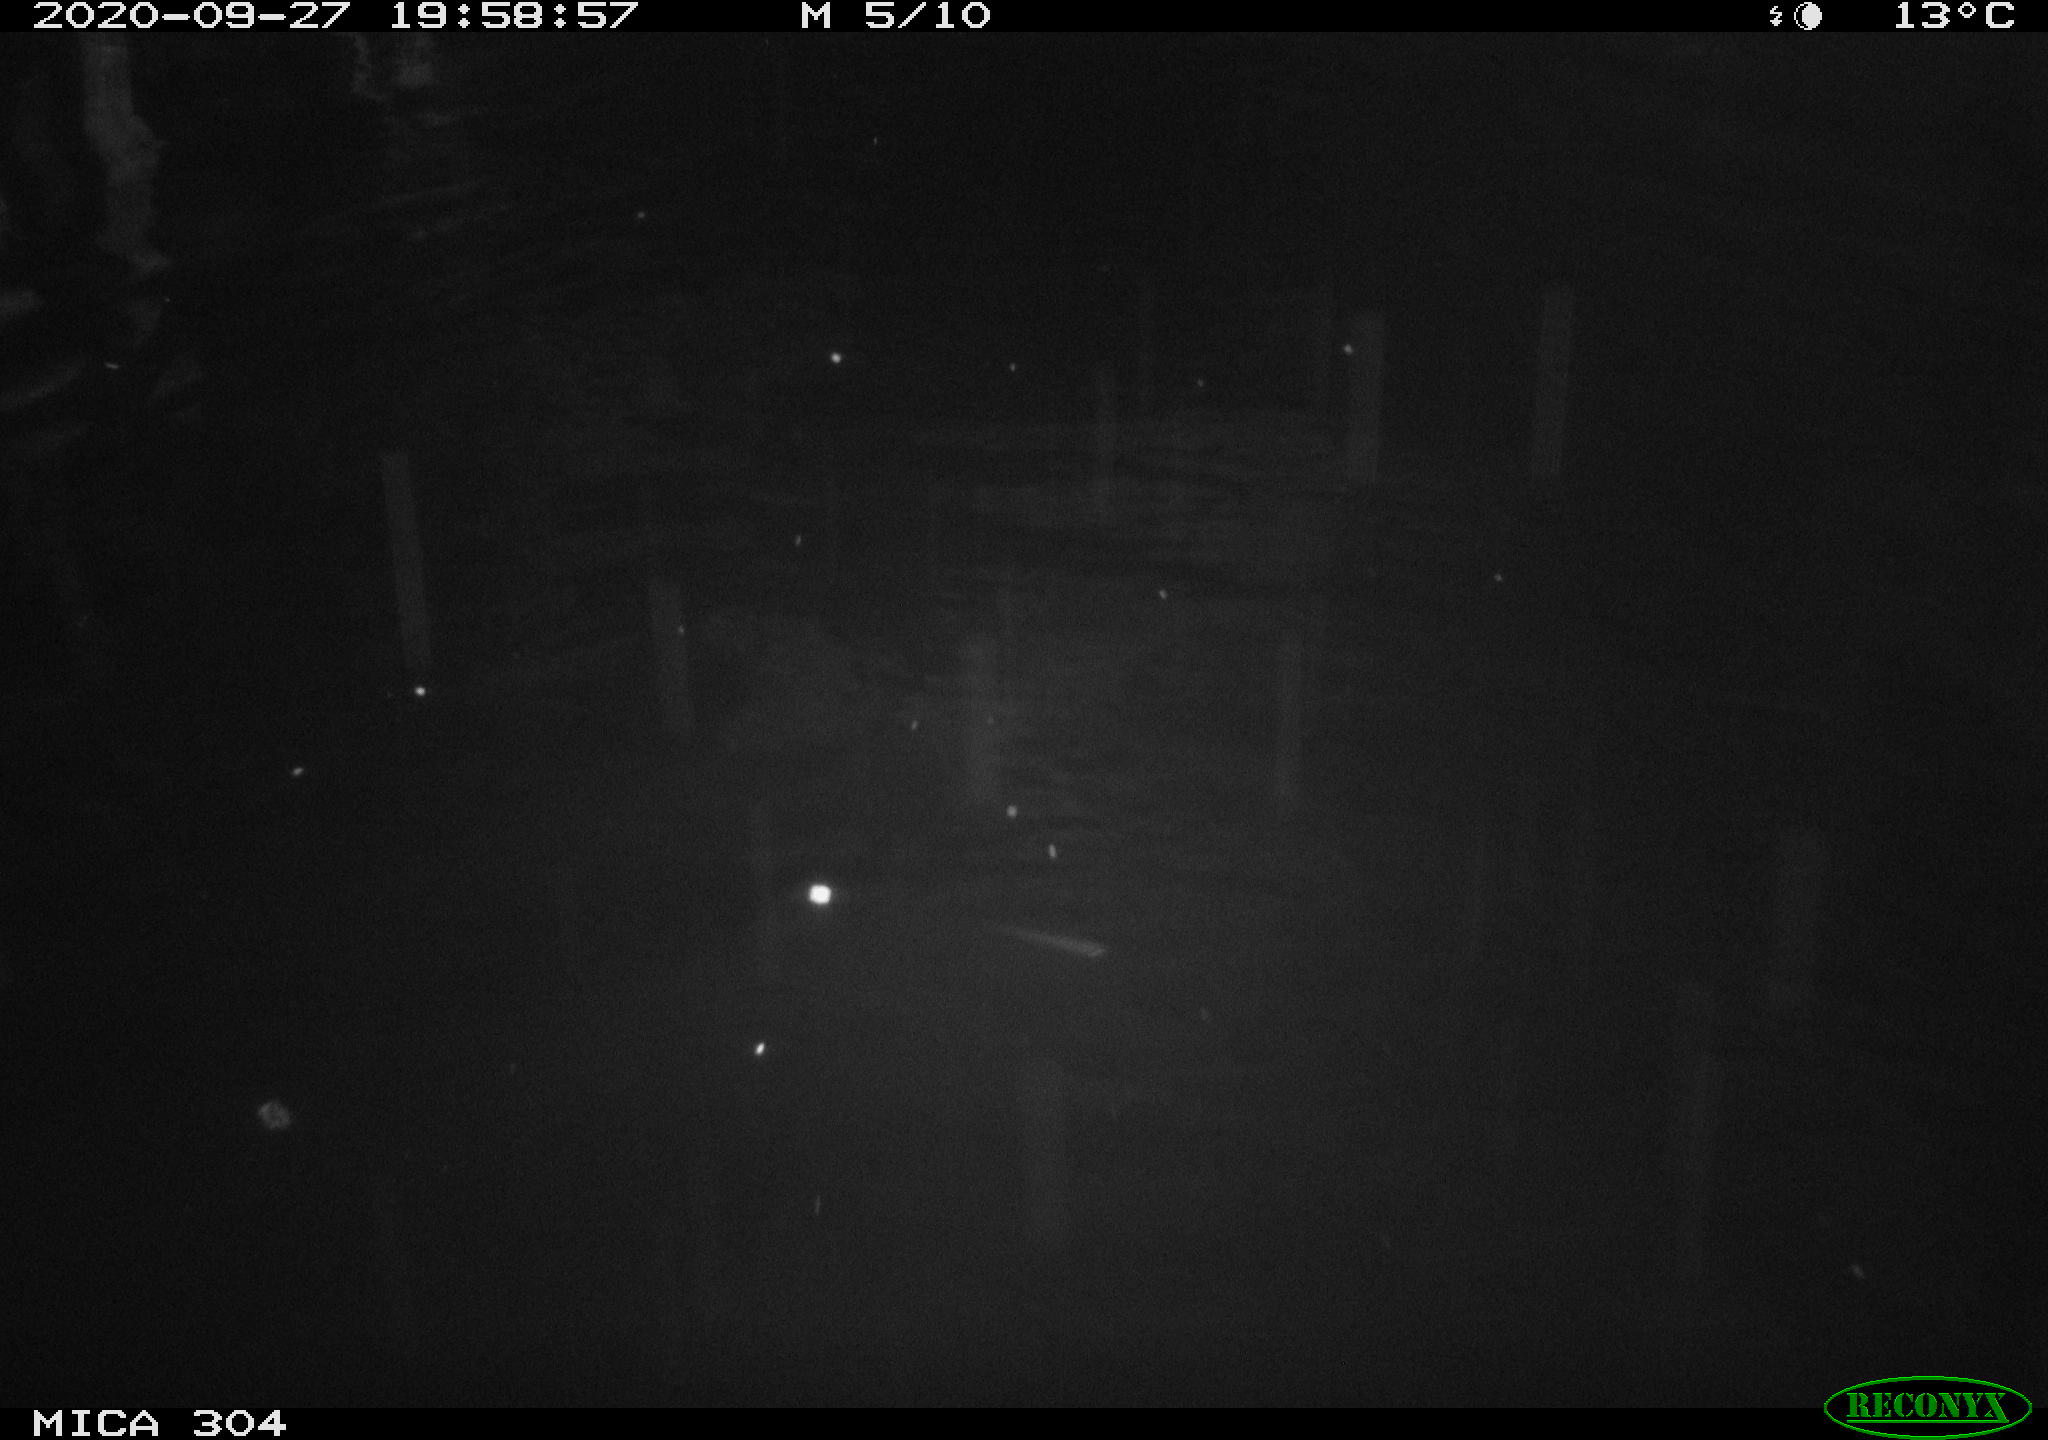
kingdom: Animalia
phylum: Chordata
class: Mammalia
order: Rodentia
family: Cricetidae
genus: Ondatra
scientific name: Ondatra zibethicus
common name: Muskrat
